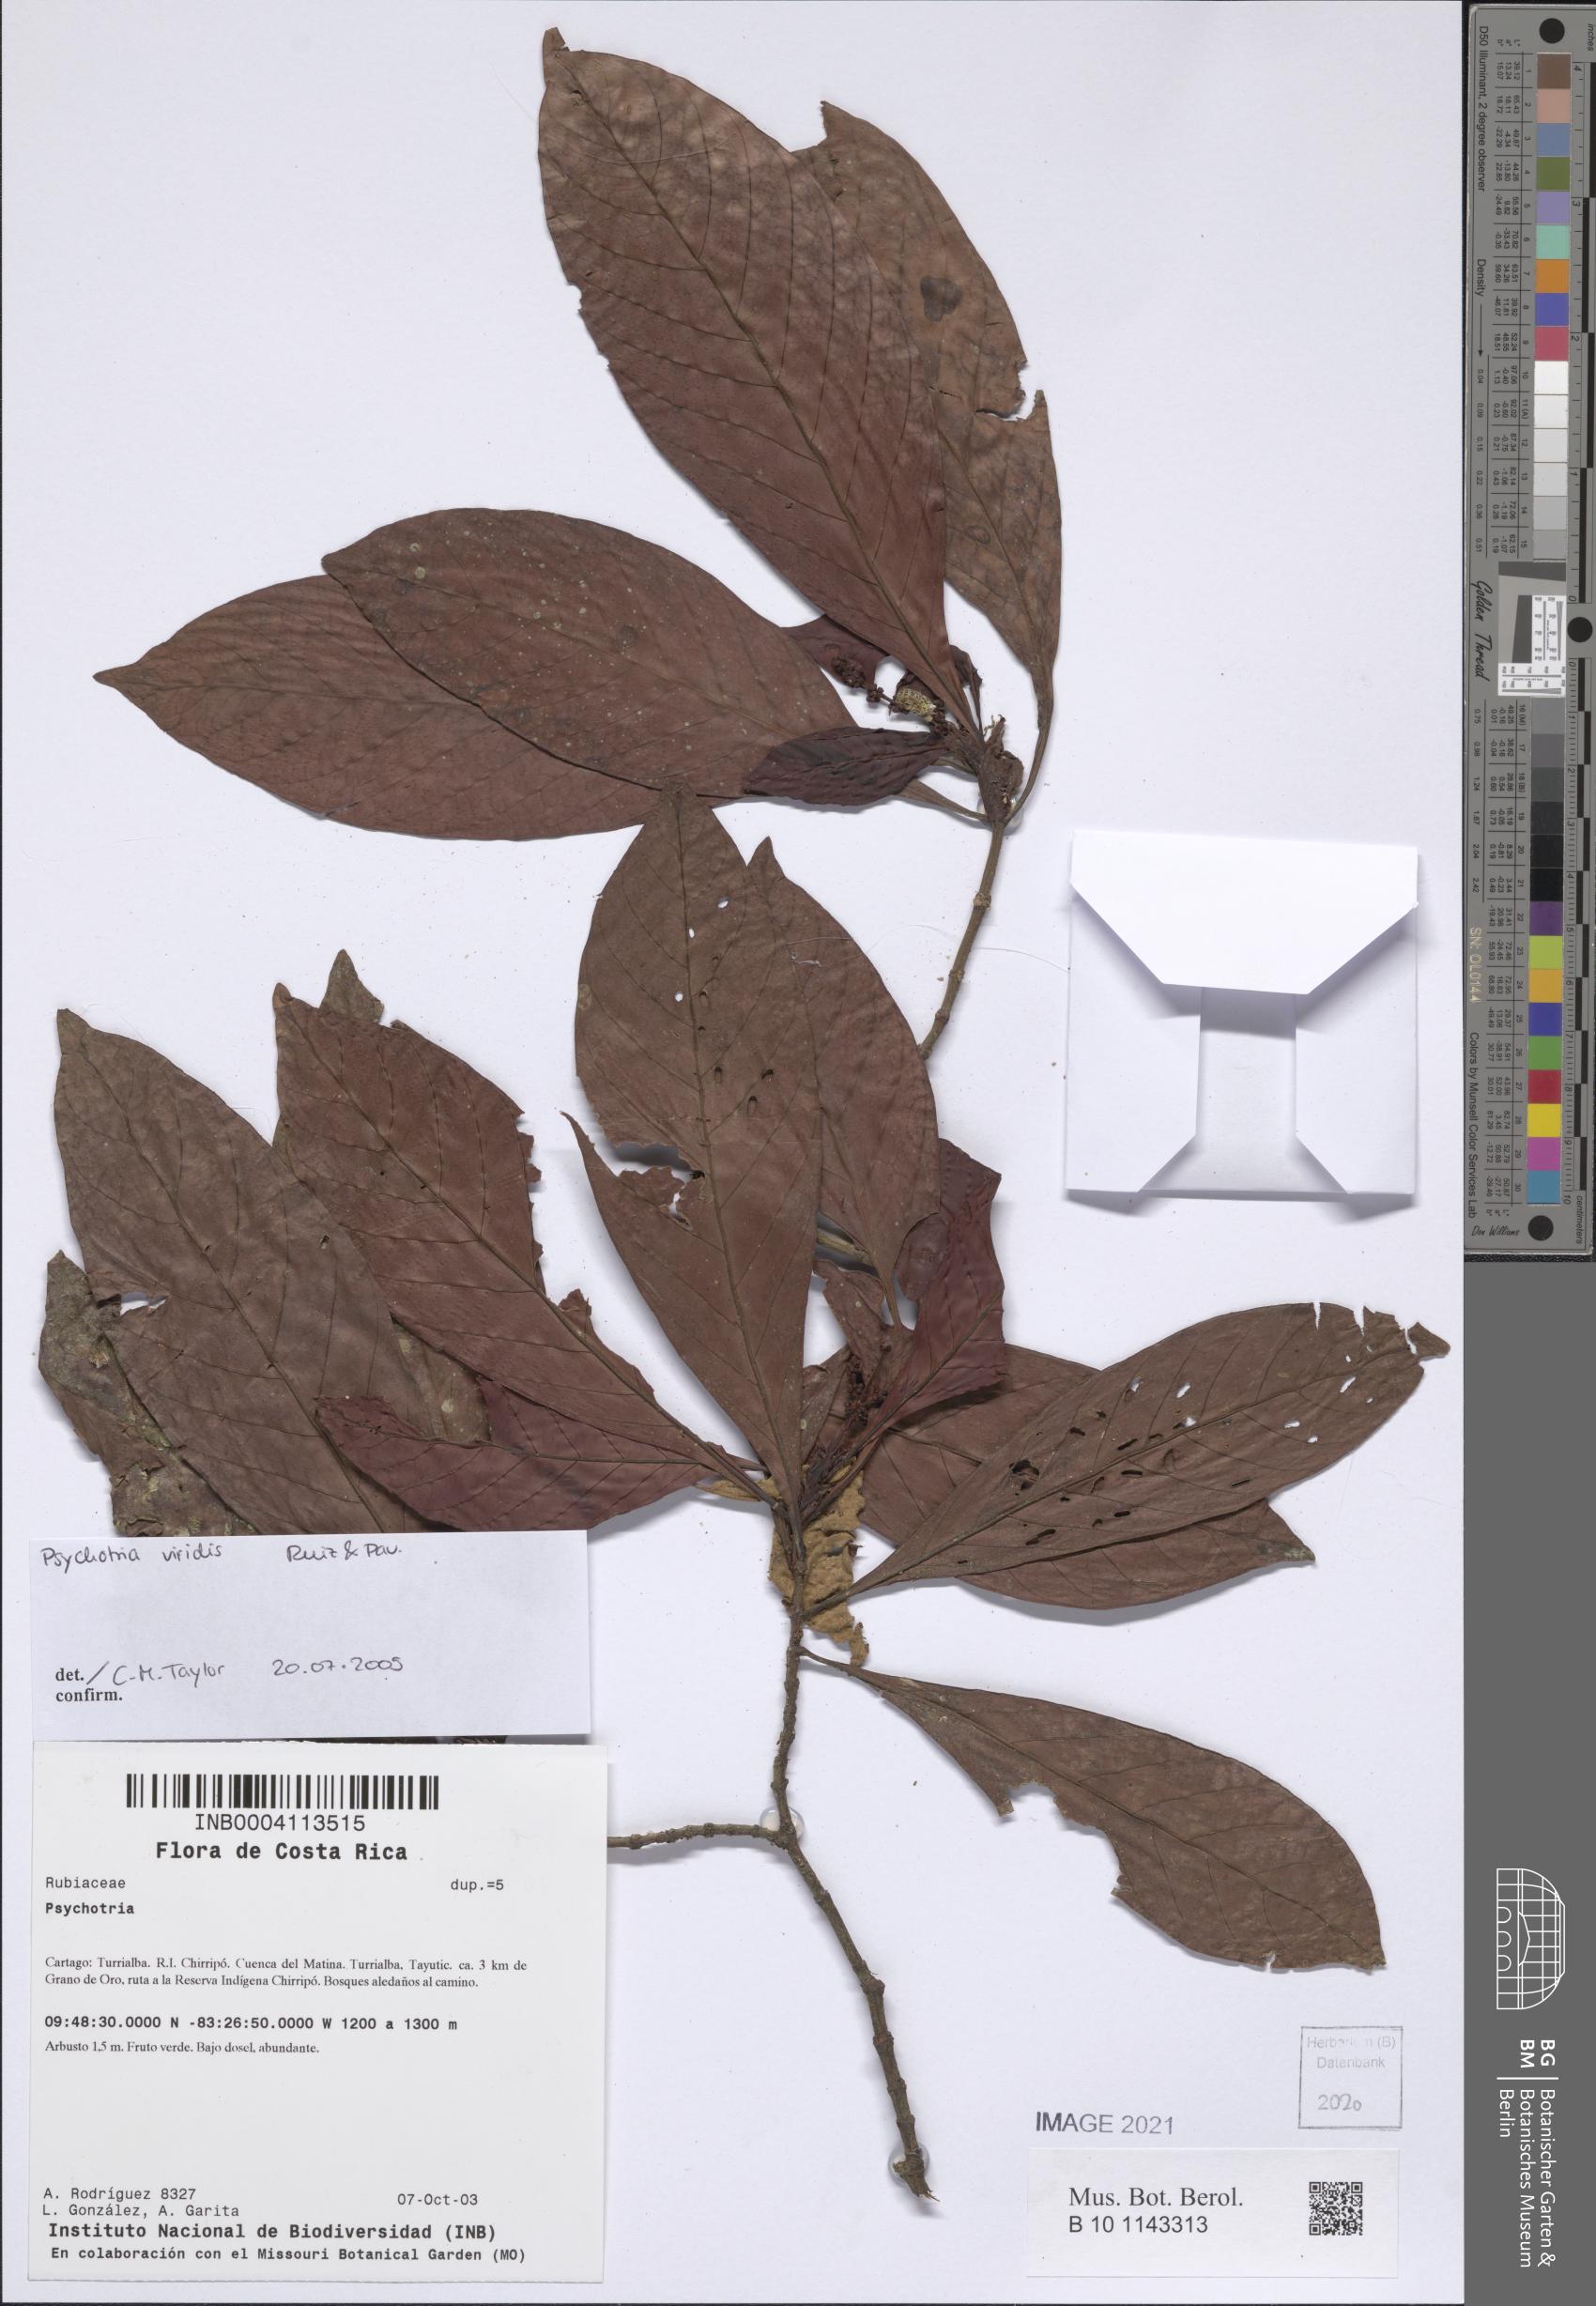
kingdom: Plantae
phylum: Tracheophyta
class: Magnoliopsida
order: Gentianales
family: Rubiaceae
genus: Psychotria
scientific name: Psychotria viridis
